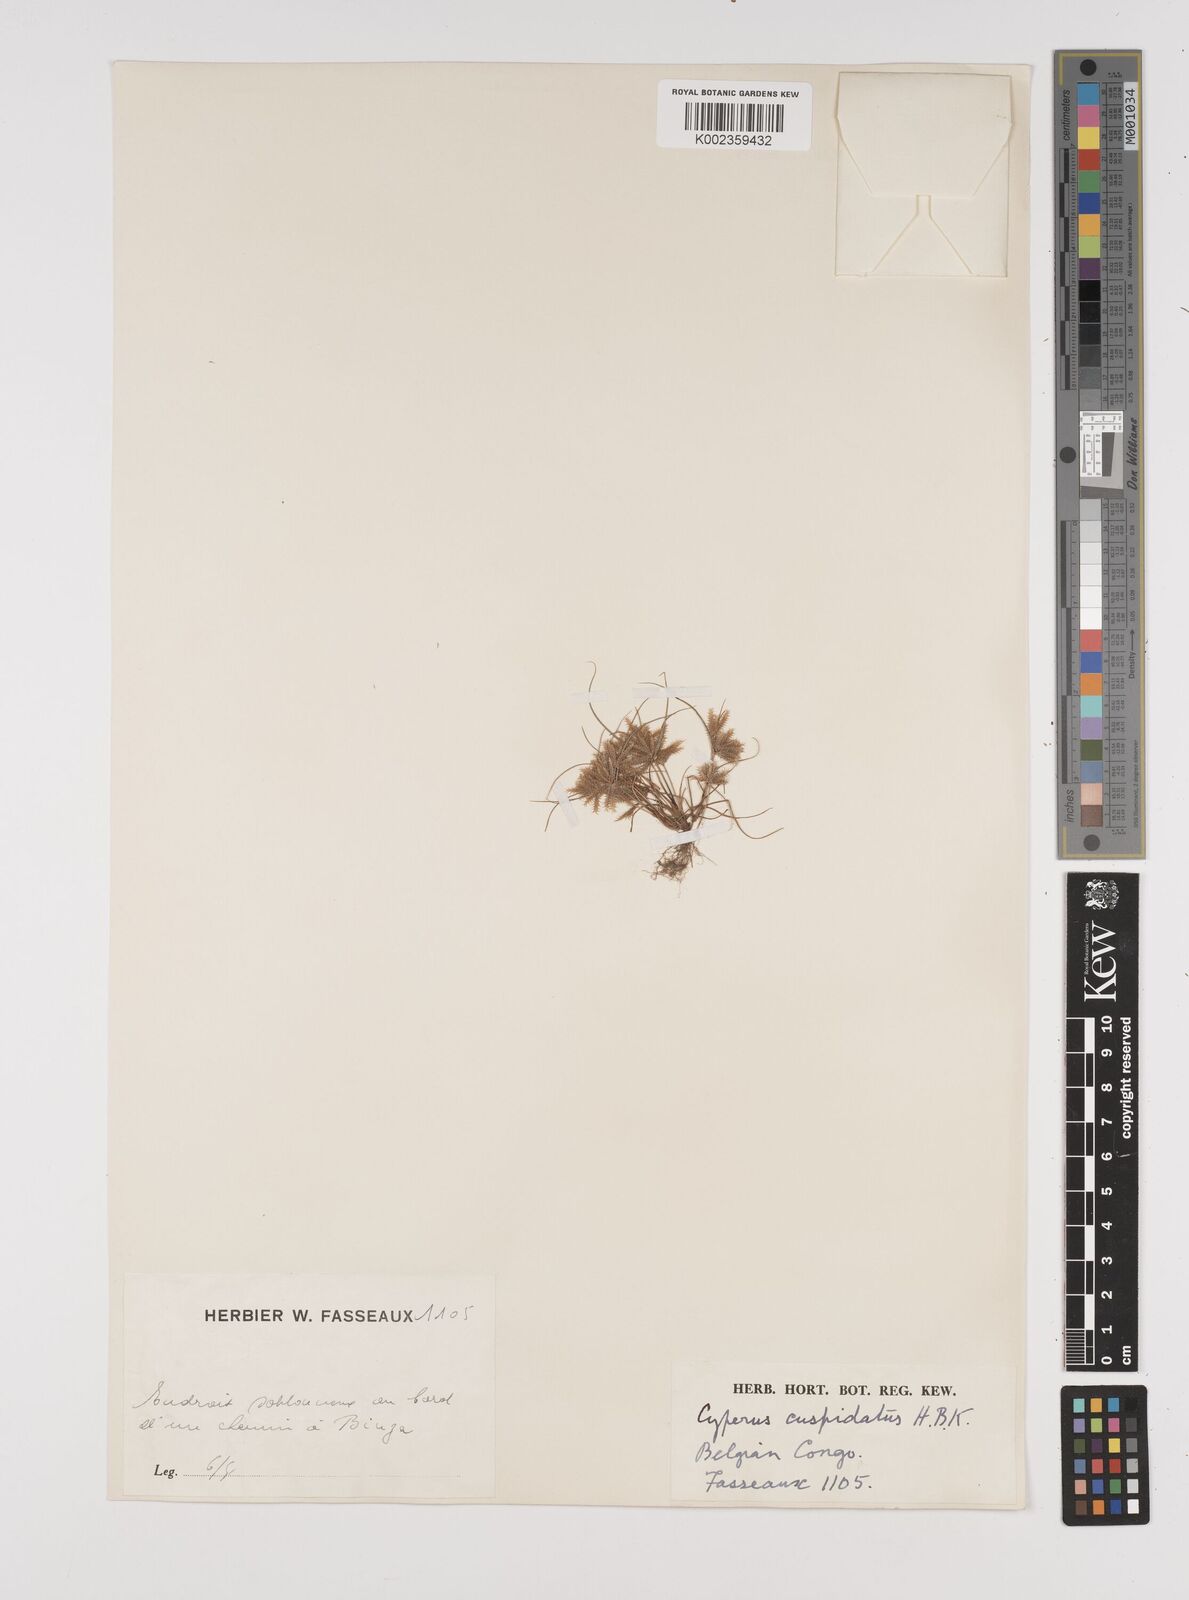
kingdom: Plantae
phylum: Tracheophyta
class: Liliopsida
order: Poales
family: Cyperaceae
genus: Cyperus
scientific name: Cyperus cuspidatus
